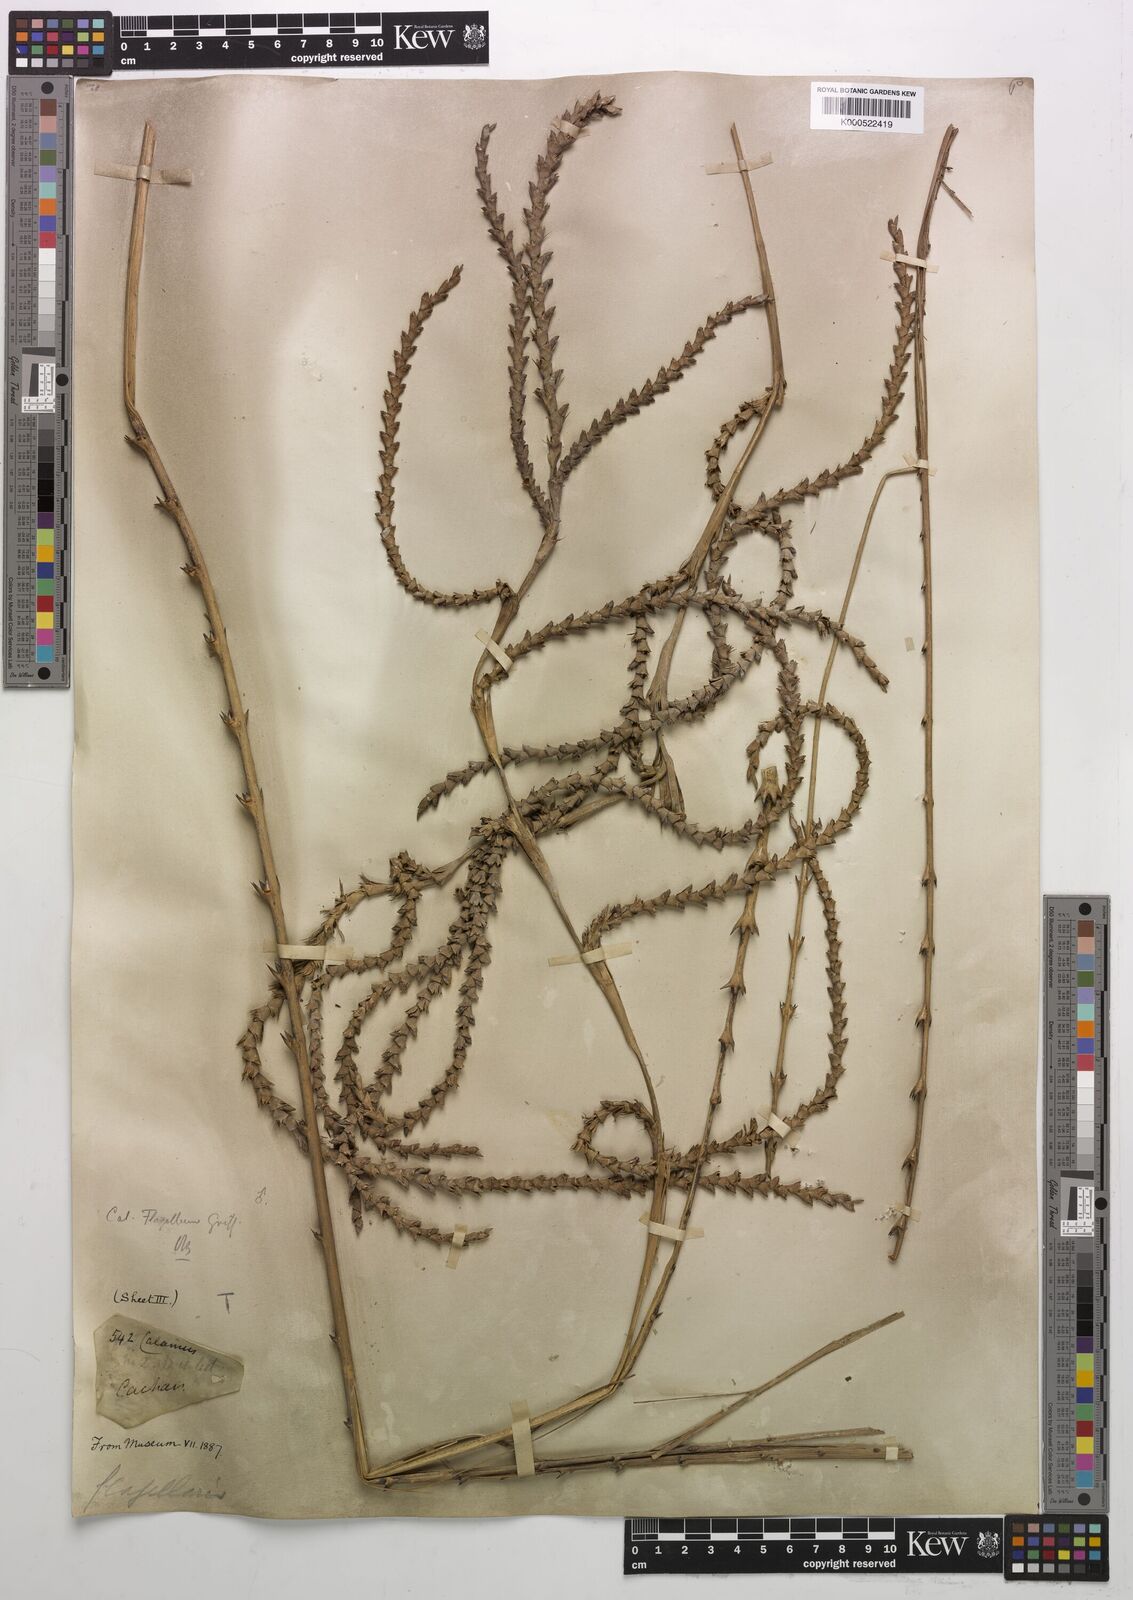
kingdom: Plantae
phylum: Tracheophyta
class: Liliopsida
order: Arecales
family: Arecaceae
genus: Calamus
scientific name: Calamus
